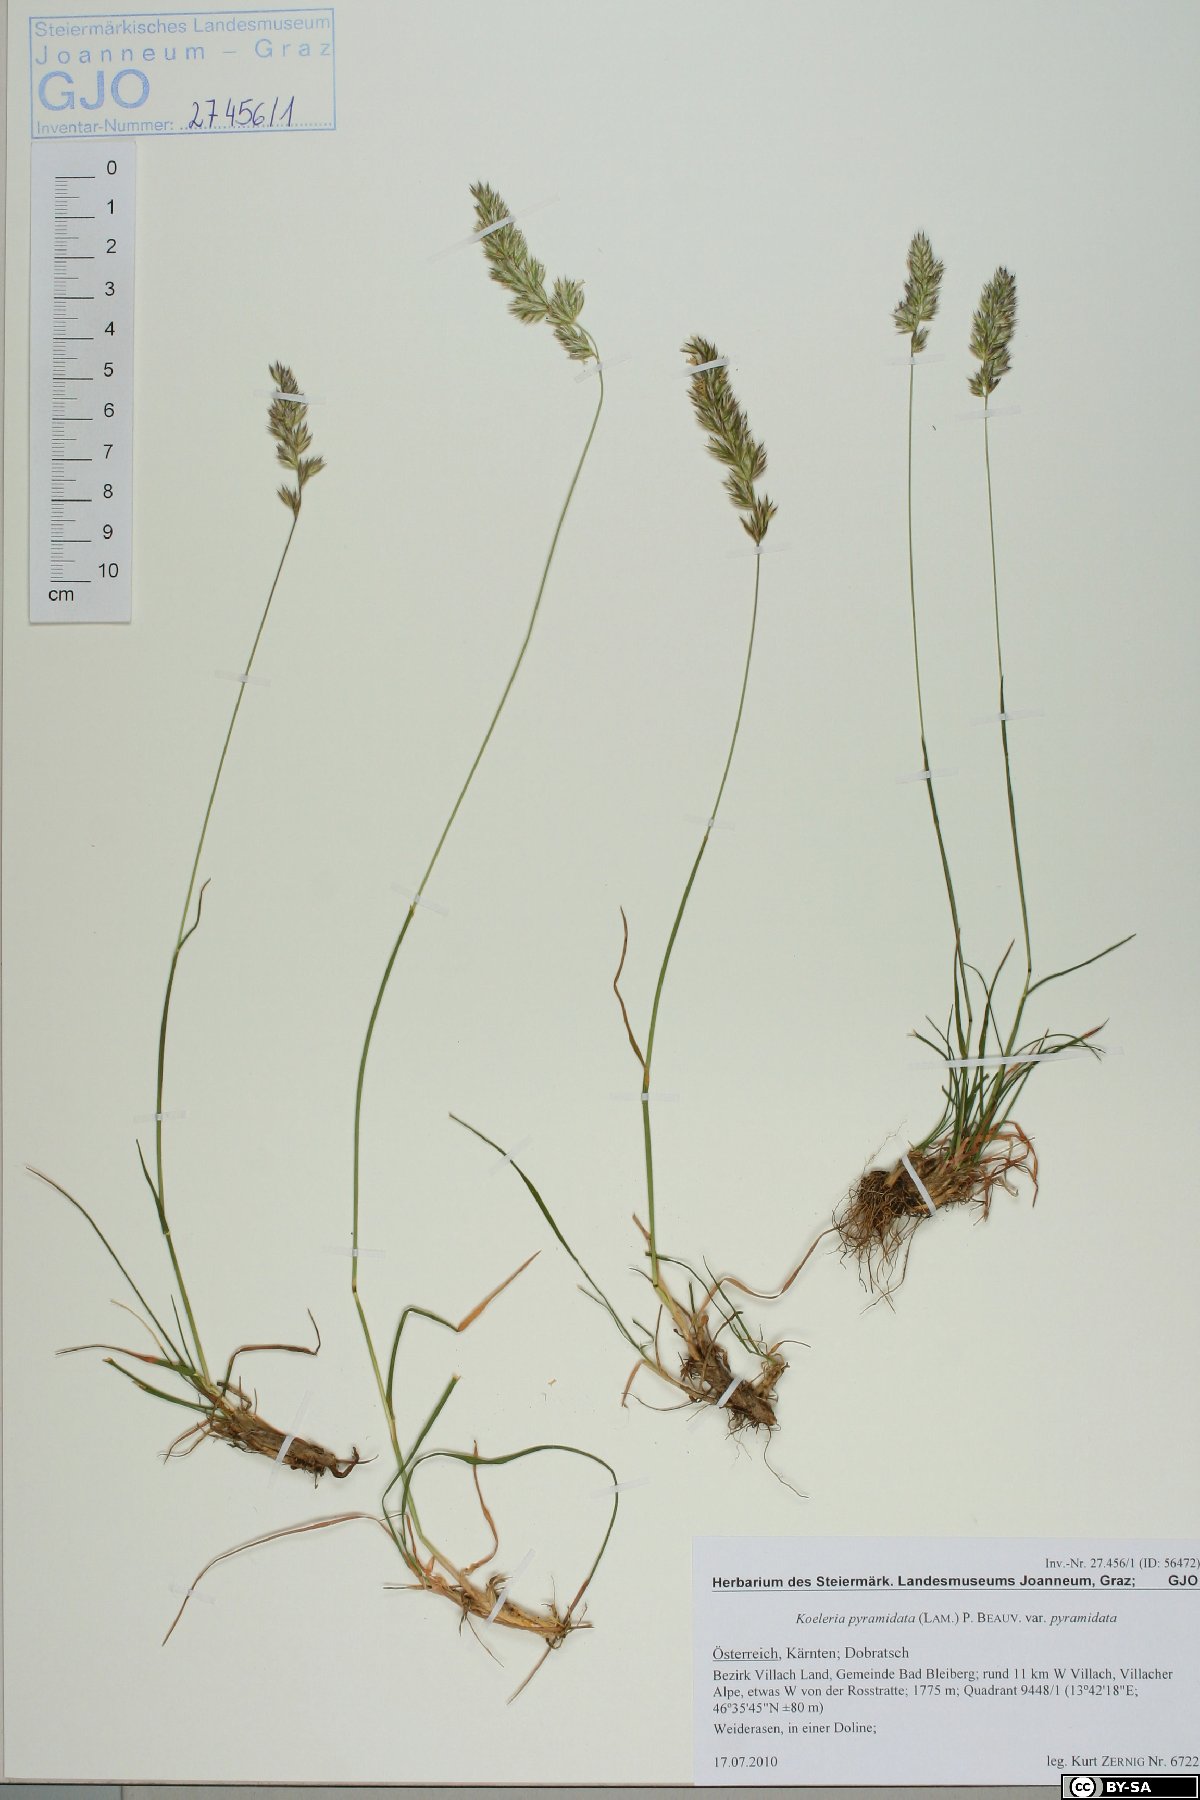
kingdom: Plantae
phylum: Tracheophyta
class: Liliopsida
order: Poales
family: Poaceae
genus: Koeleria
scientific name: Koeleria pyramidata
